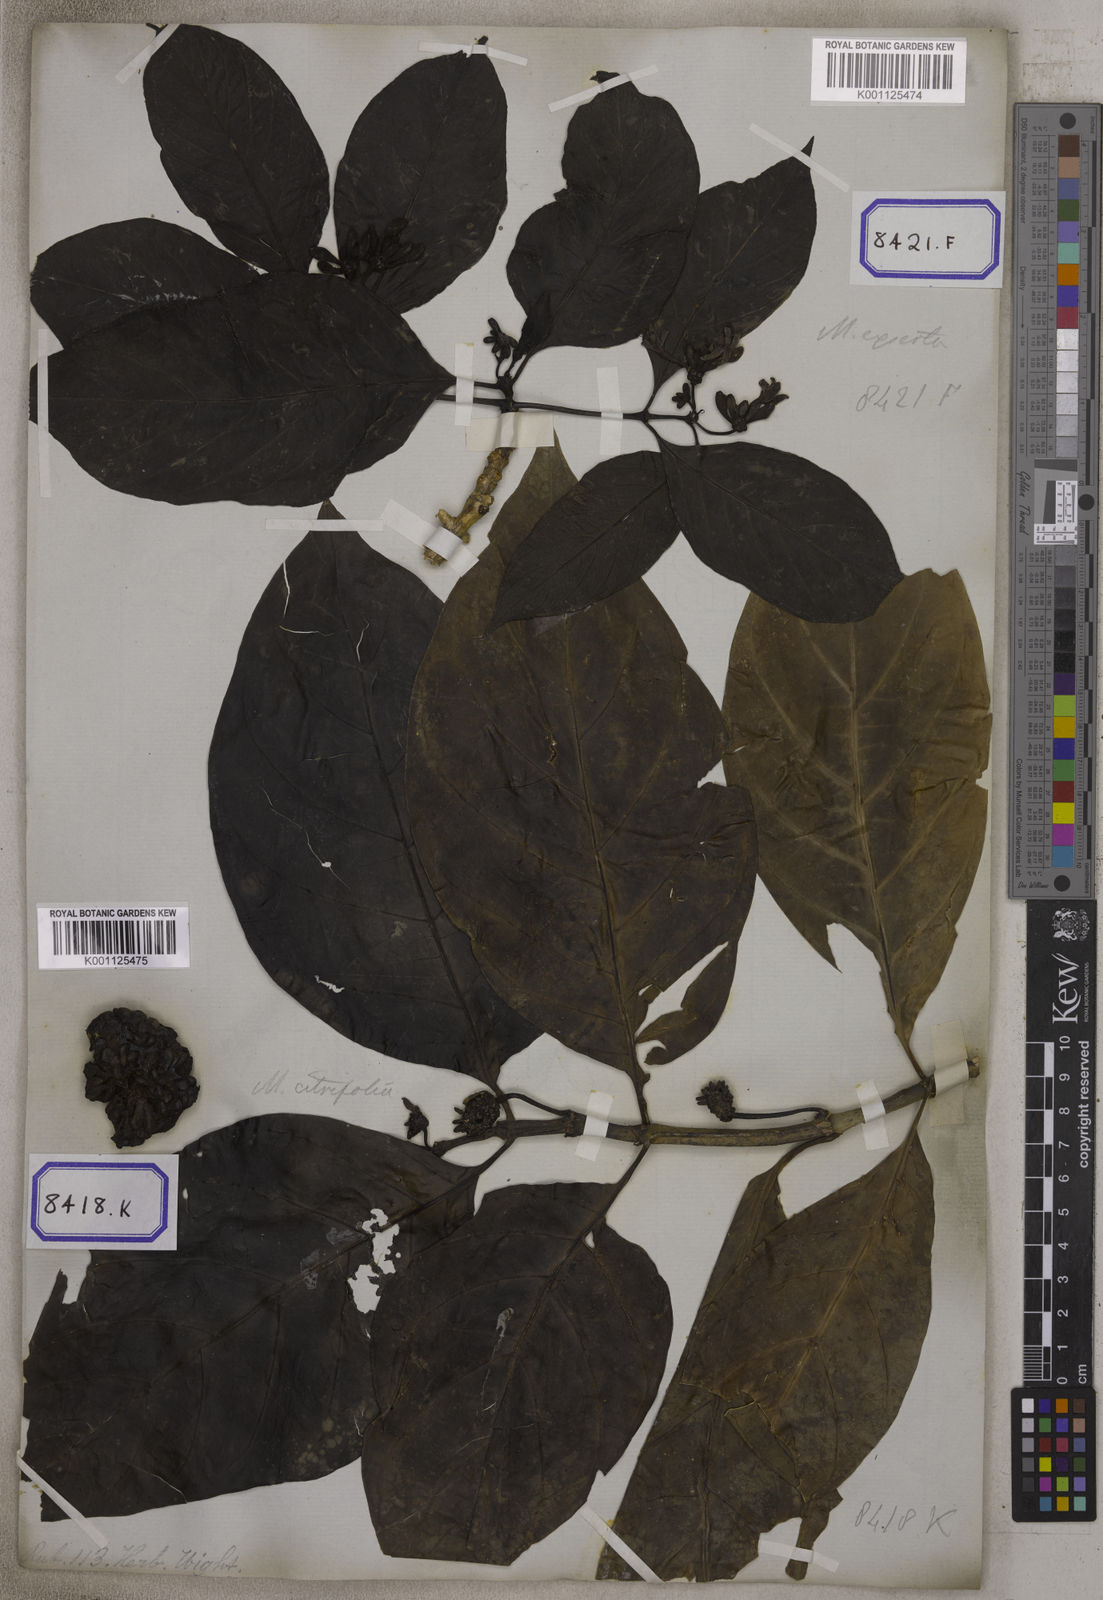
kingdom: Plantae
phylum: Tracheophyta
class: Magnoliopsida
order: Gentianales
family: Rubiaceae
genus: Morinda
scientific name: Morinda coreia
